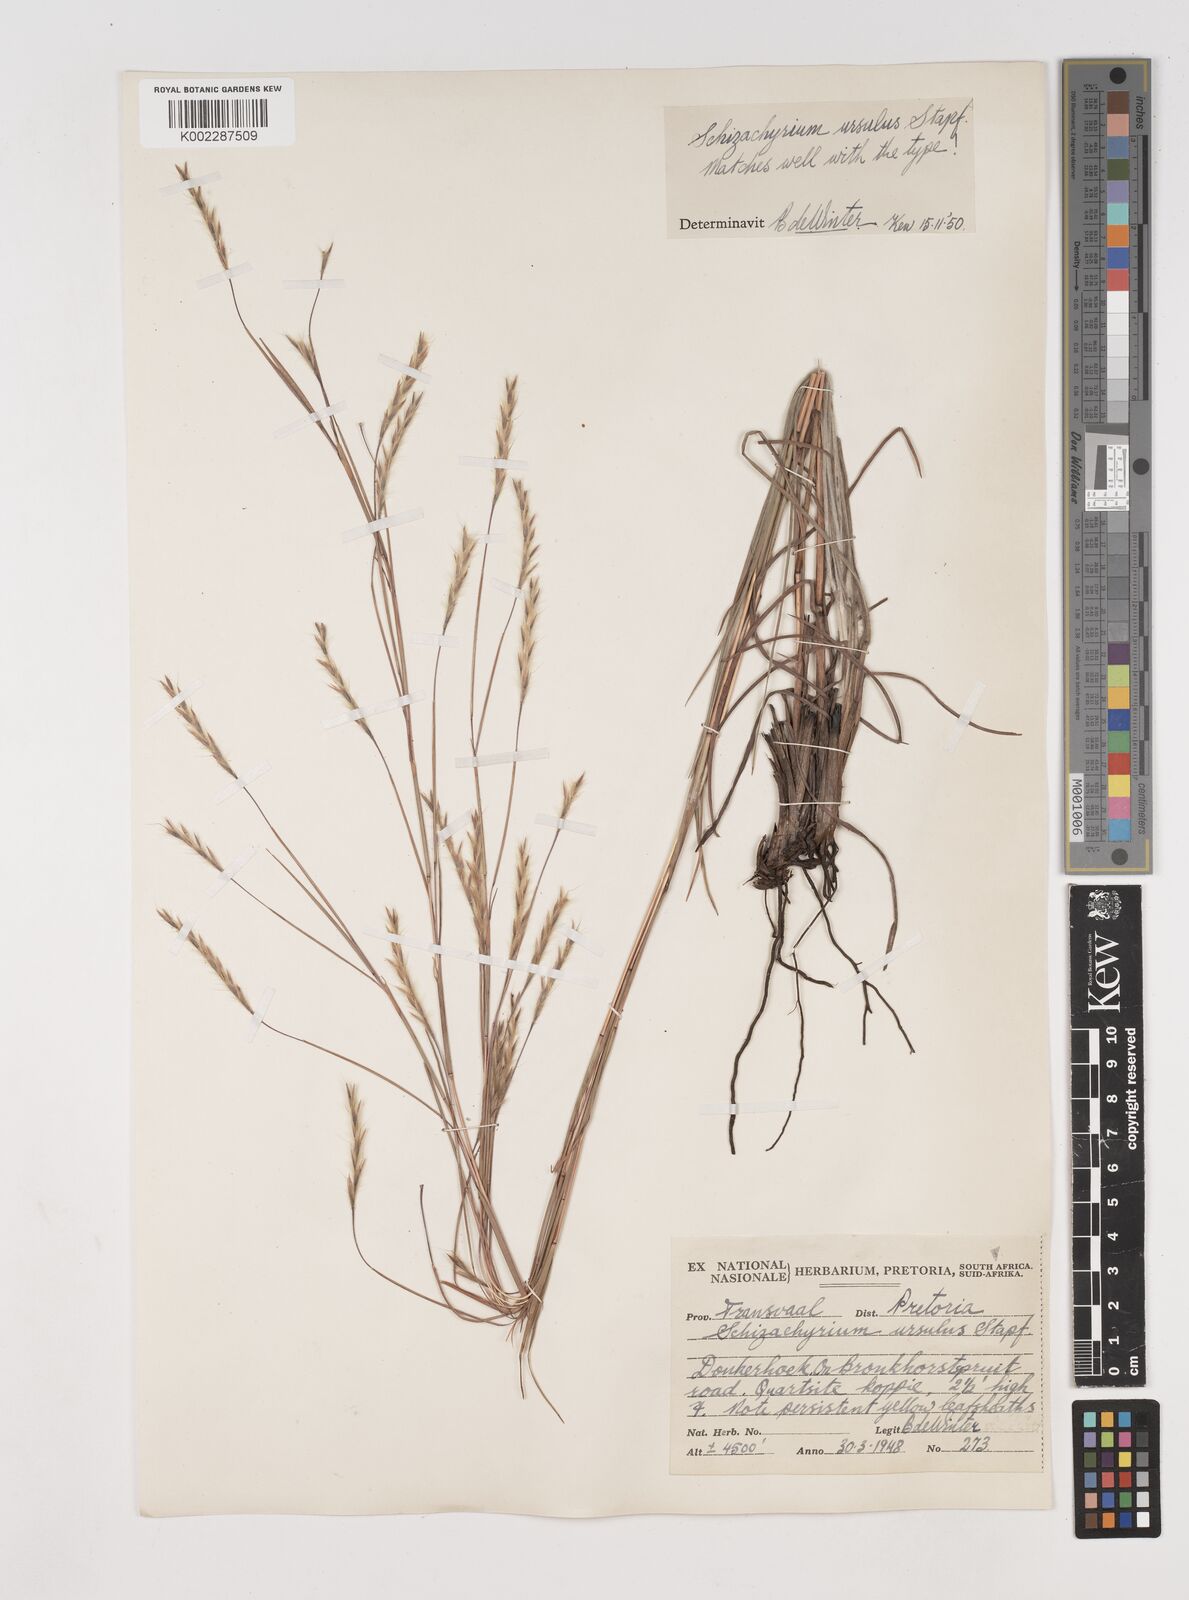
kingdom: Plantae
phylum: Tracheophyta
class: Liliopsida
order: Poales
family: Poaceae
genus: Schizachyrium
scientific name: Schizachyrium jeffreysii
